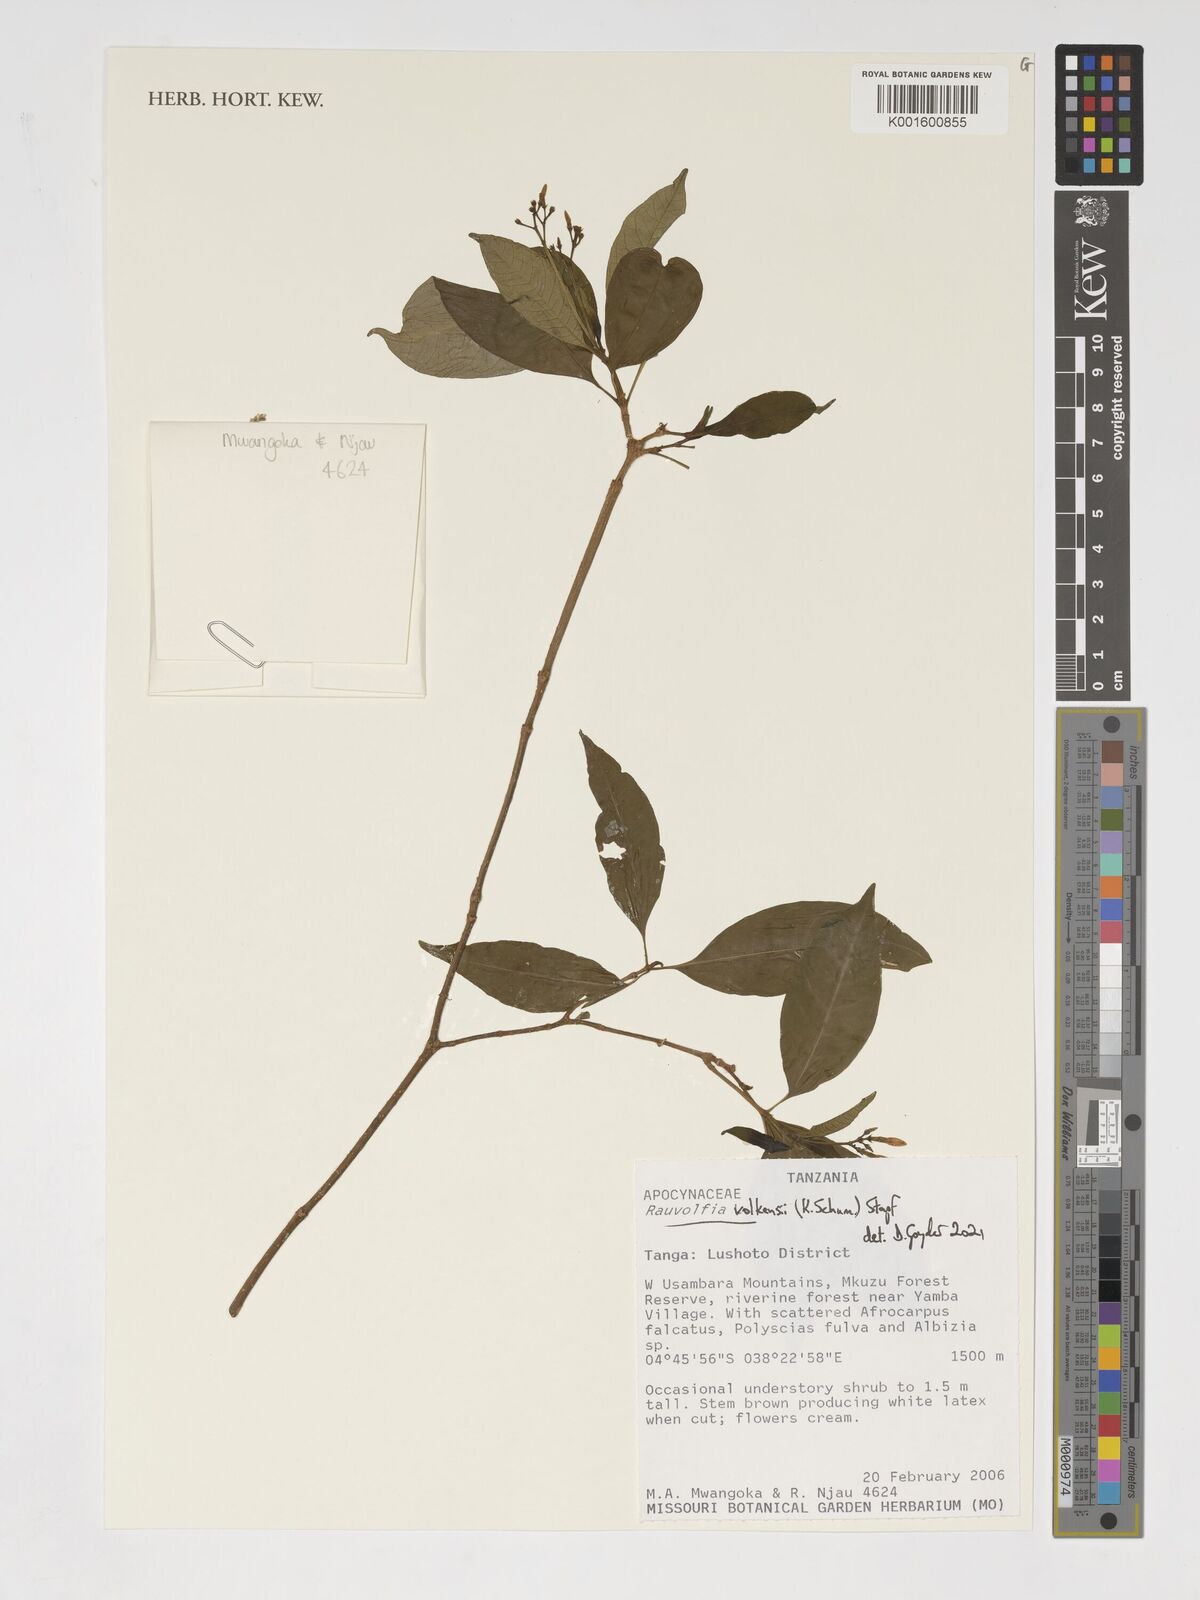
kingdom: Plantae
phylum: Tracheophyta
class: Magnoliopsida
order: Gentianales
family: Apocynaceae
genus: Rauvolfia
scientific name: Rauvolfia volkensii
